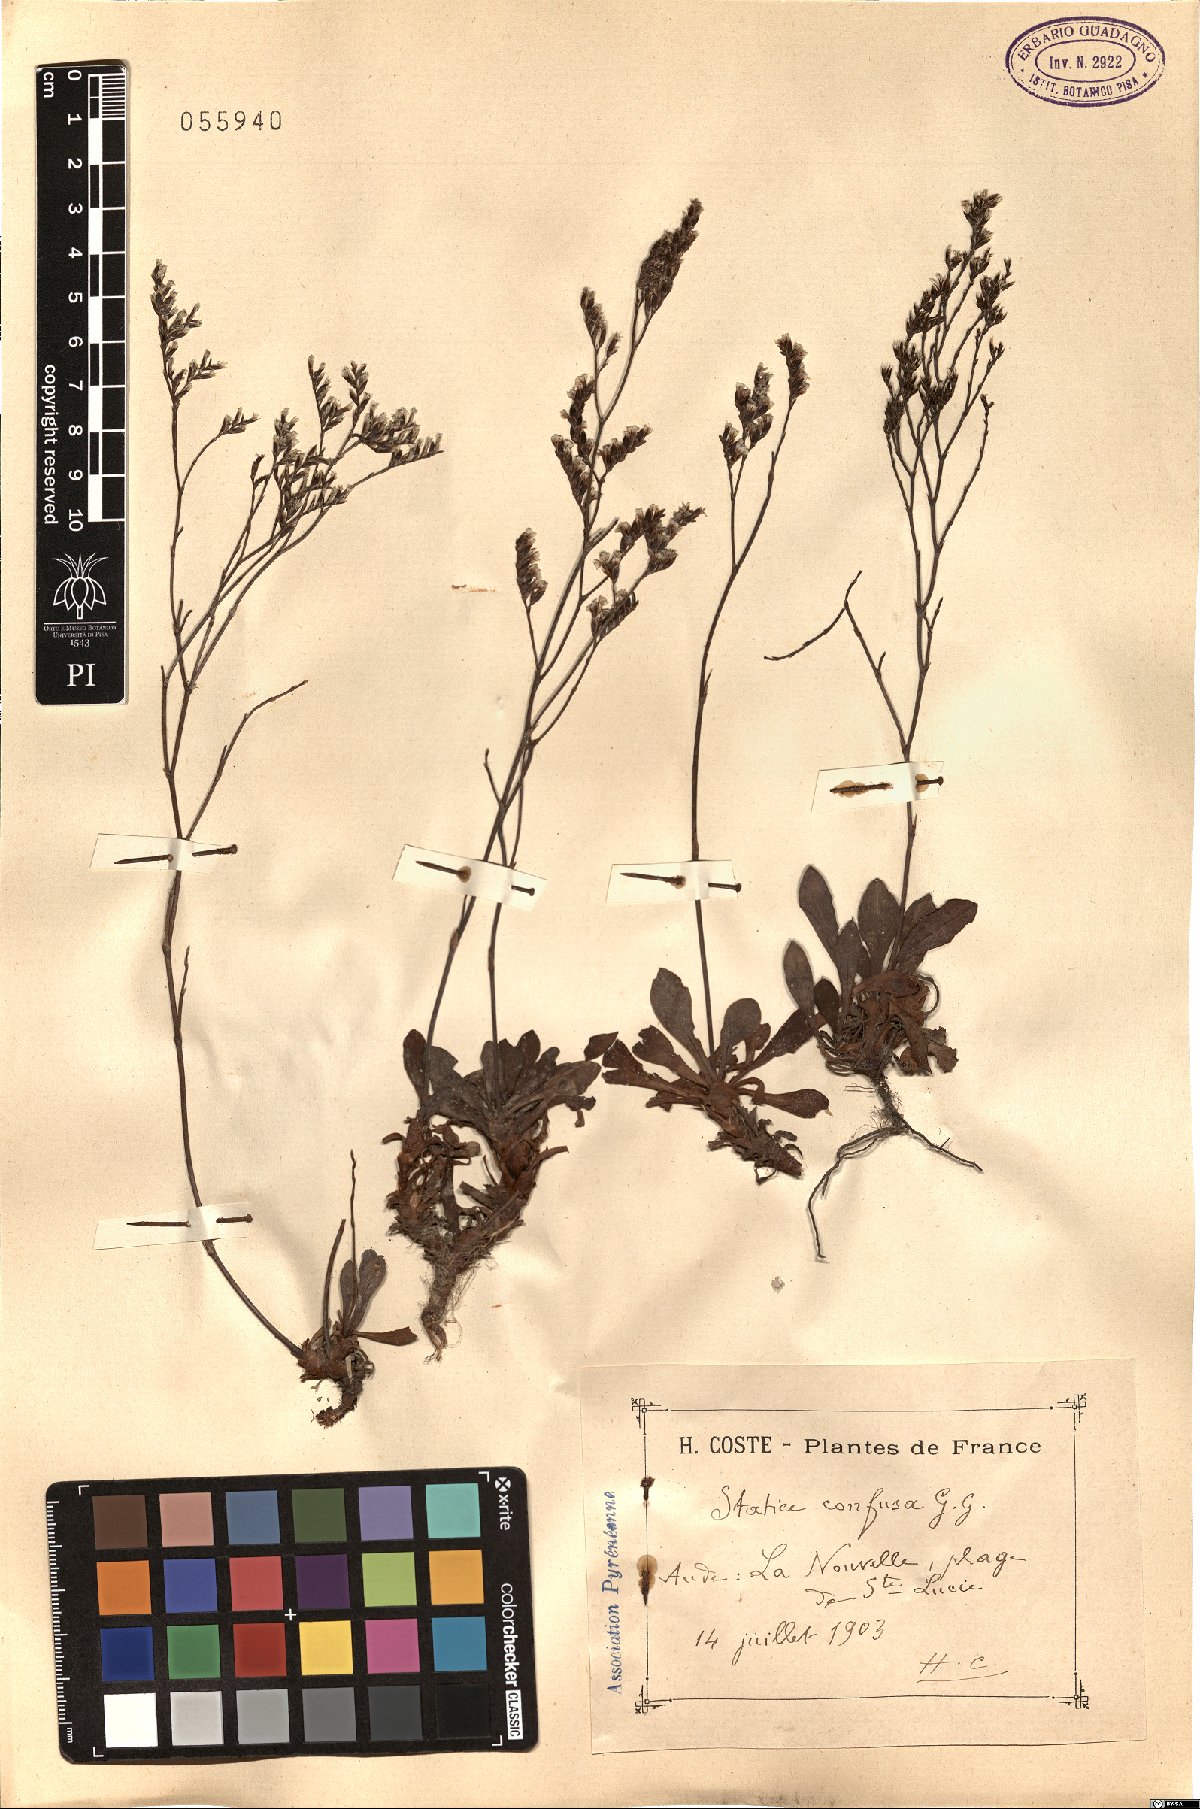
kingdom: Plantae
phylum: Tracheophyta
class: Magnoliopsida
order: Caryophyllales
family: Plumbaginaceae
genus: Limonium
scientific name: Limonium confusum
